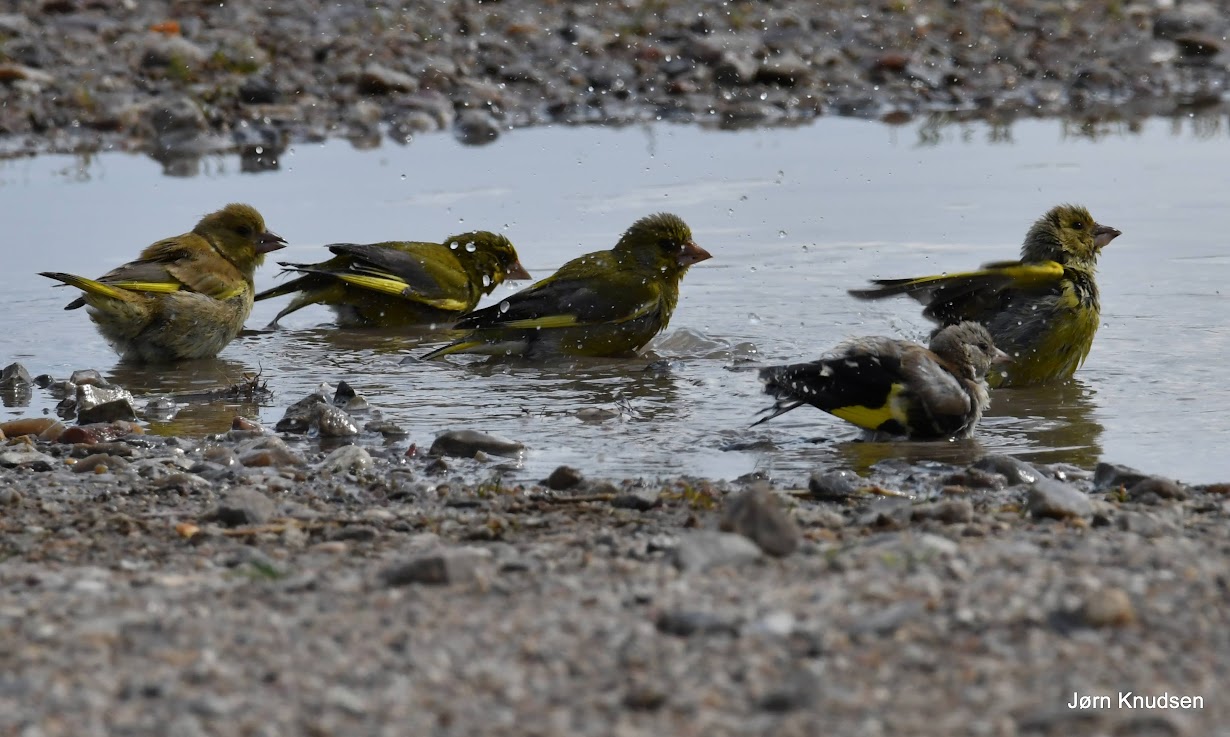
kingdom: Plantae
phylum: Tracheophyta
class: Liliopsida
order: Poales
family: Poaceae
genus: Chloris
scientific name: Chloris chloris
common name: Grønirisk
